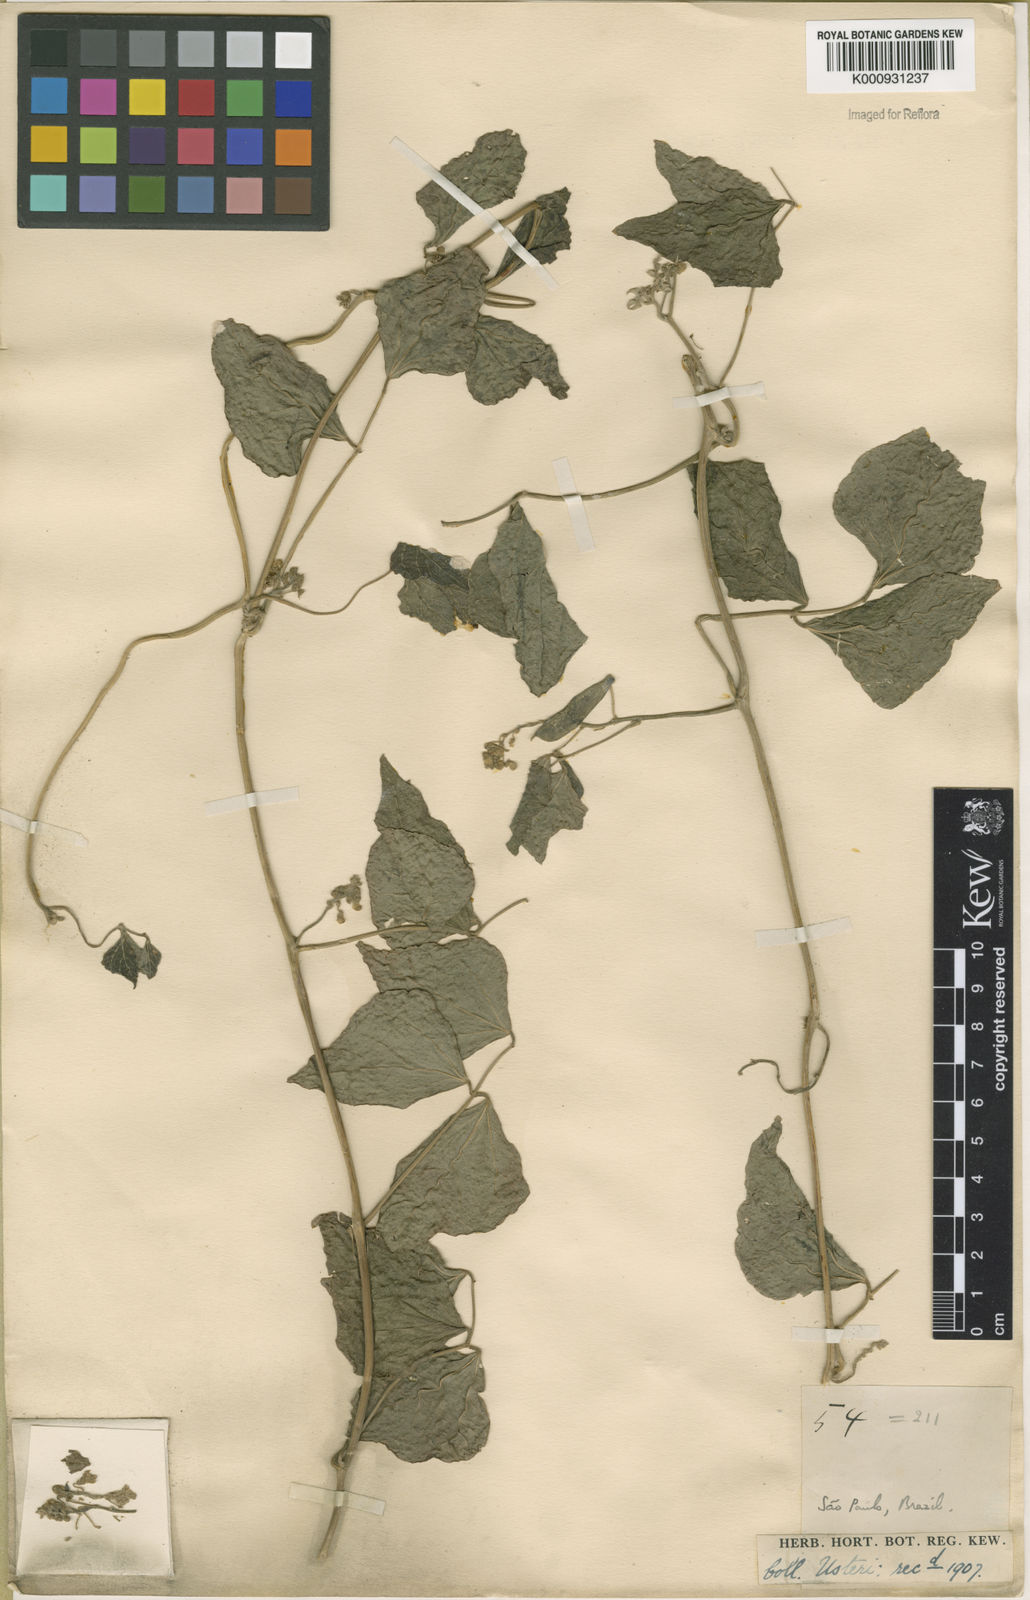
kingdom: Plantae
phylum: Tracheophyta
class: Magnoliopsida
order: Fabales
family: Fabaceae
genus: Phaseolus
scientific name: Phaseolus lunatus
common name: Sieva bean
